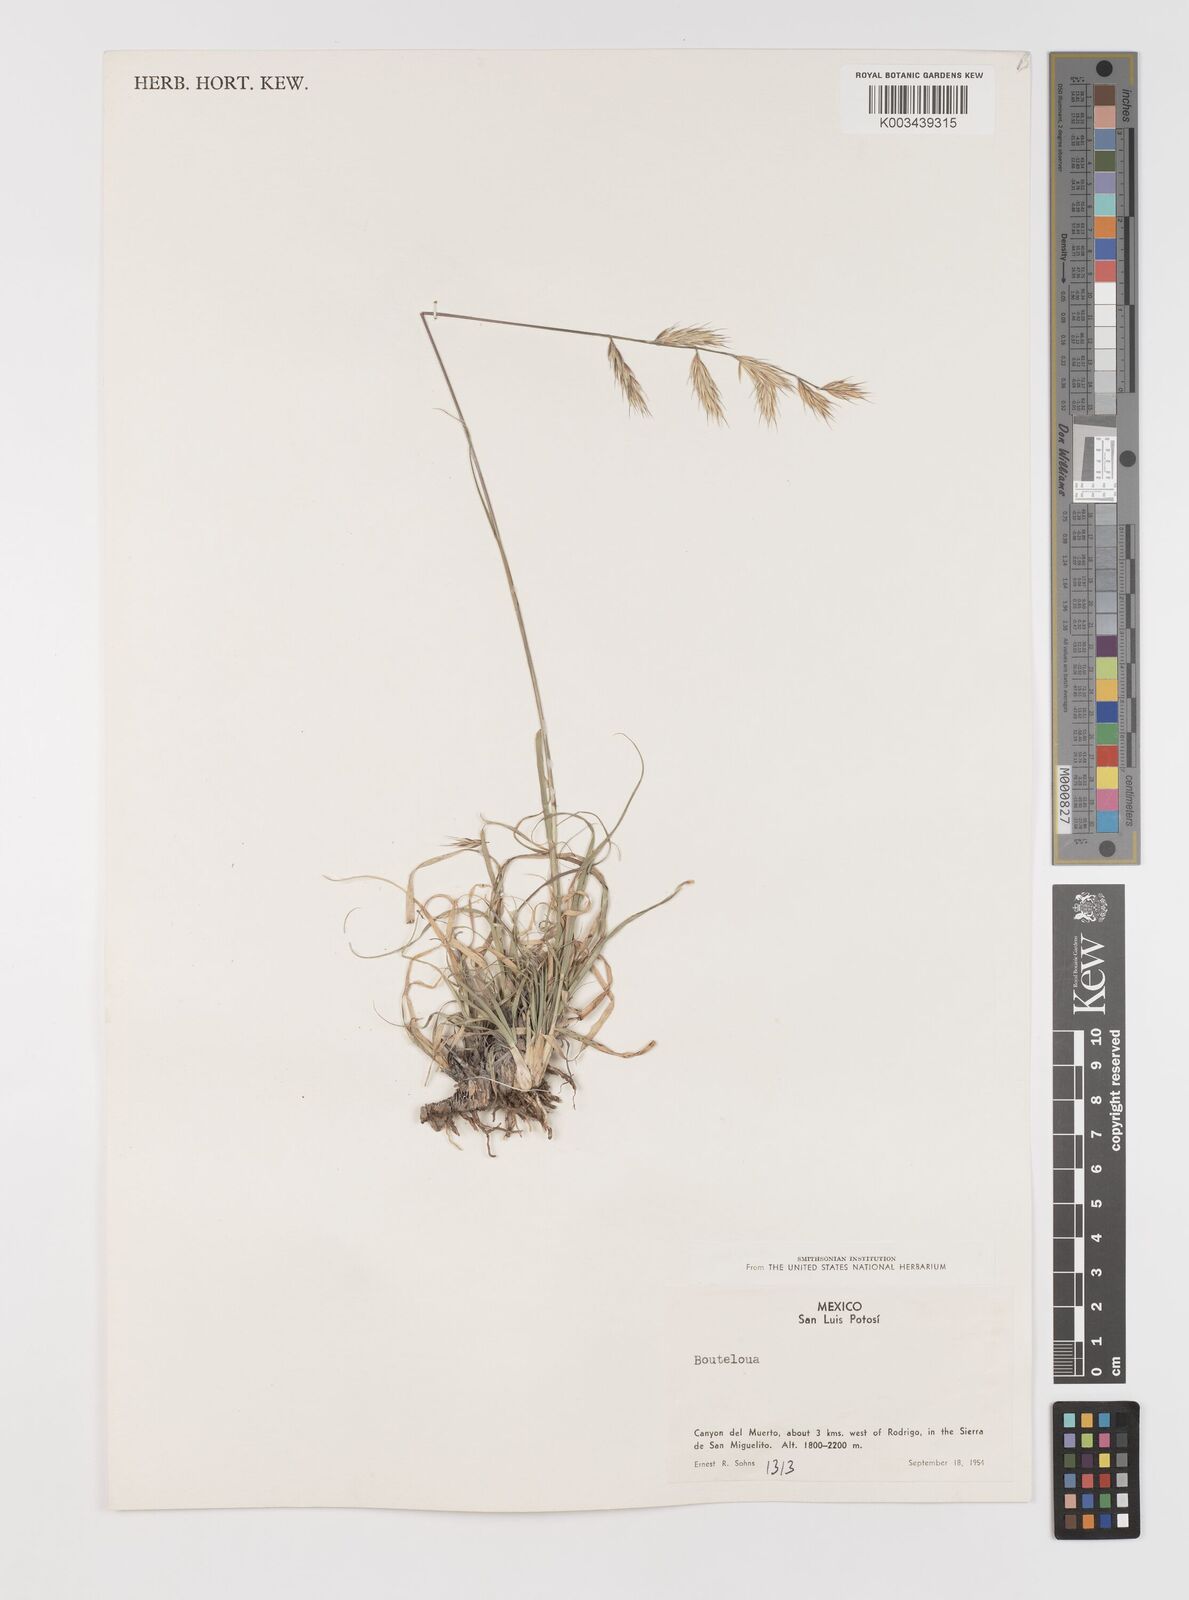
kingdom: Plantae
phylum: Tracheophyta
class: Liliopsida
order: Poales
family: Poaceae
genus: Bouteloua
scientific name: Bouteloua repens
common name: Slender grama
